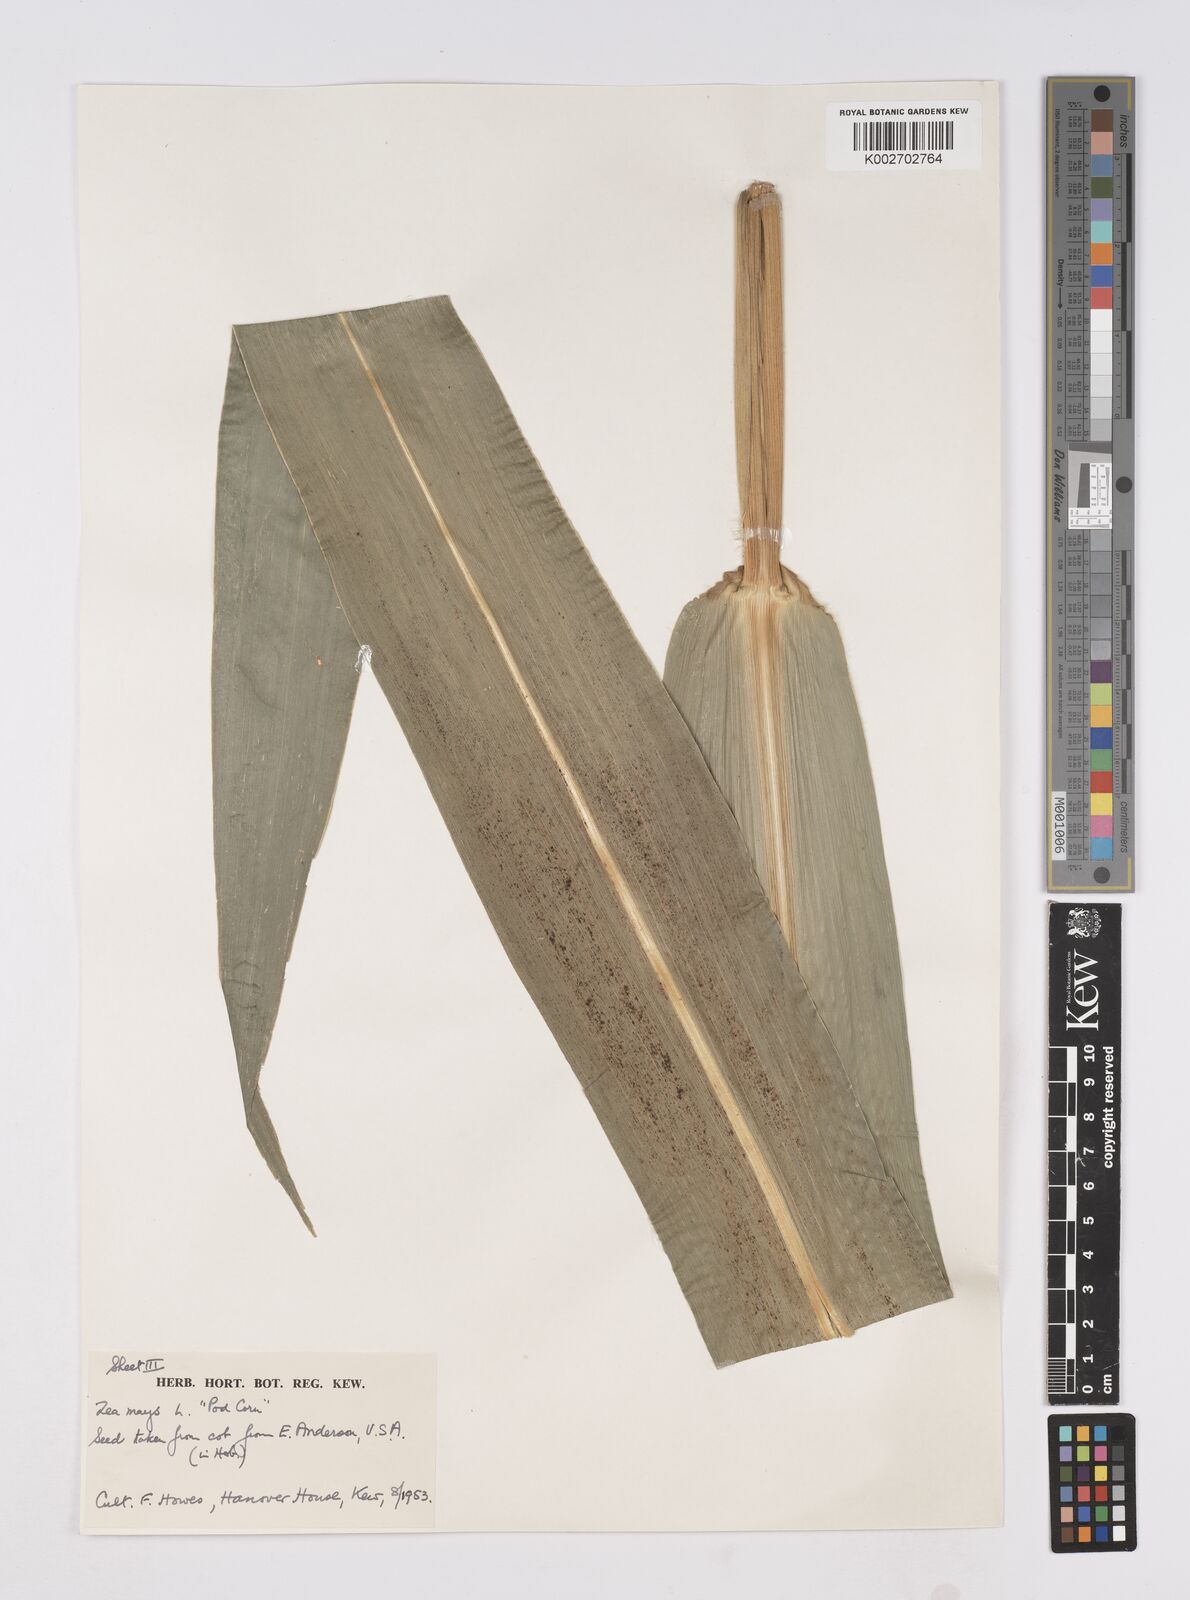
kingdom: Plantae
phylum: Tracheophyta
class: Liliopsida
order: Poales
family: Poaceae
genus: Zea
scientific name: Zea mays
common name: Maize
